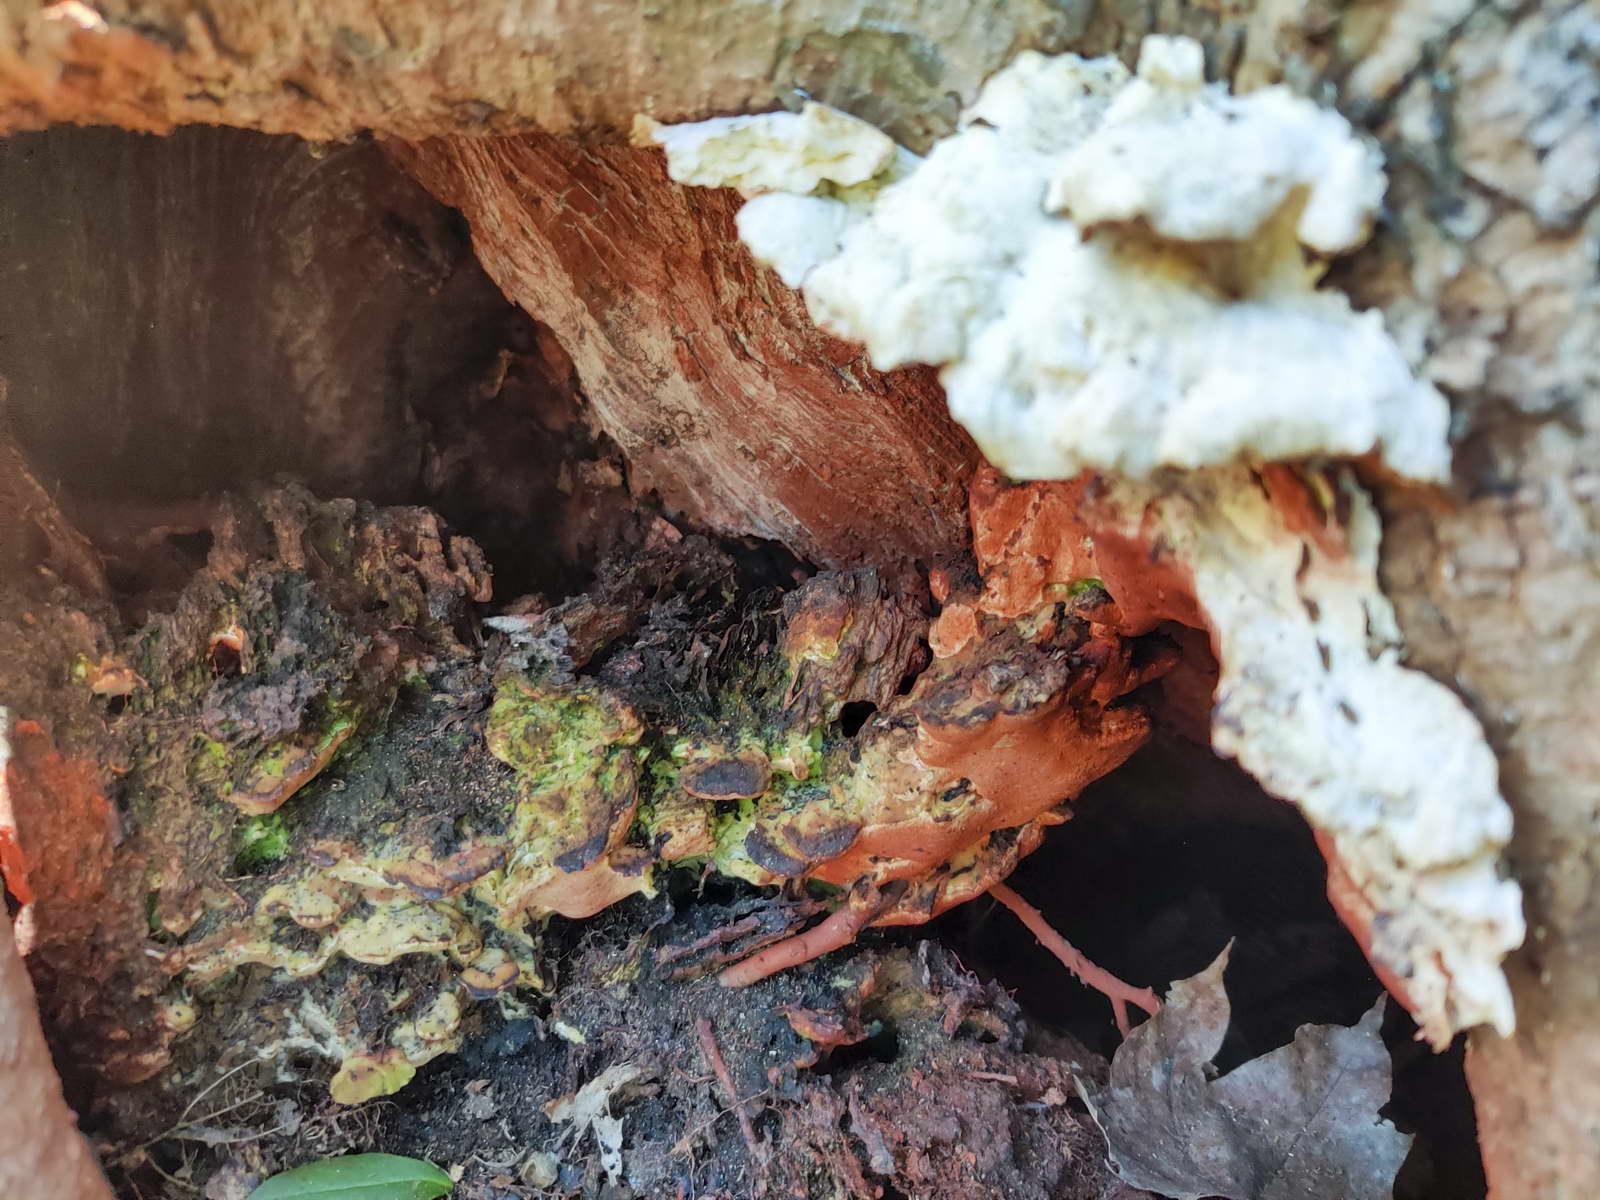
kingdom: Fungi
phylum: Basidiomycota
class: Agaricomycetes
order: Hymenochaetales
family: Oxyporaceae
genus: Oxyporus
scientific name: Oxyporus populinus
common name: sammenvokset trylleporesvamp
